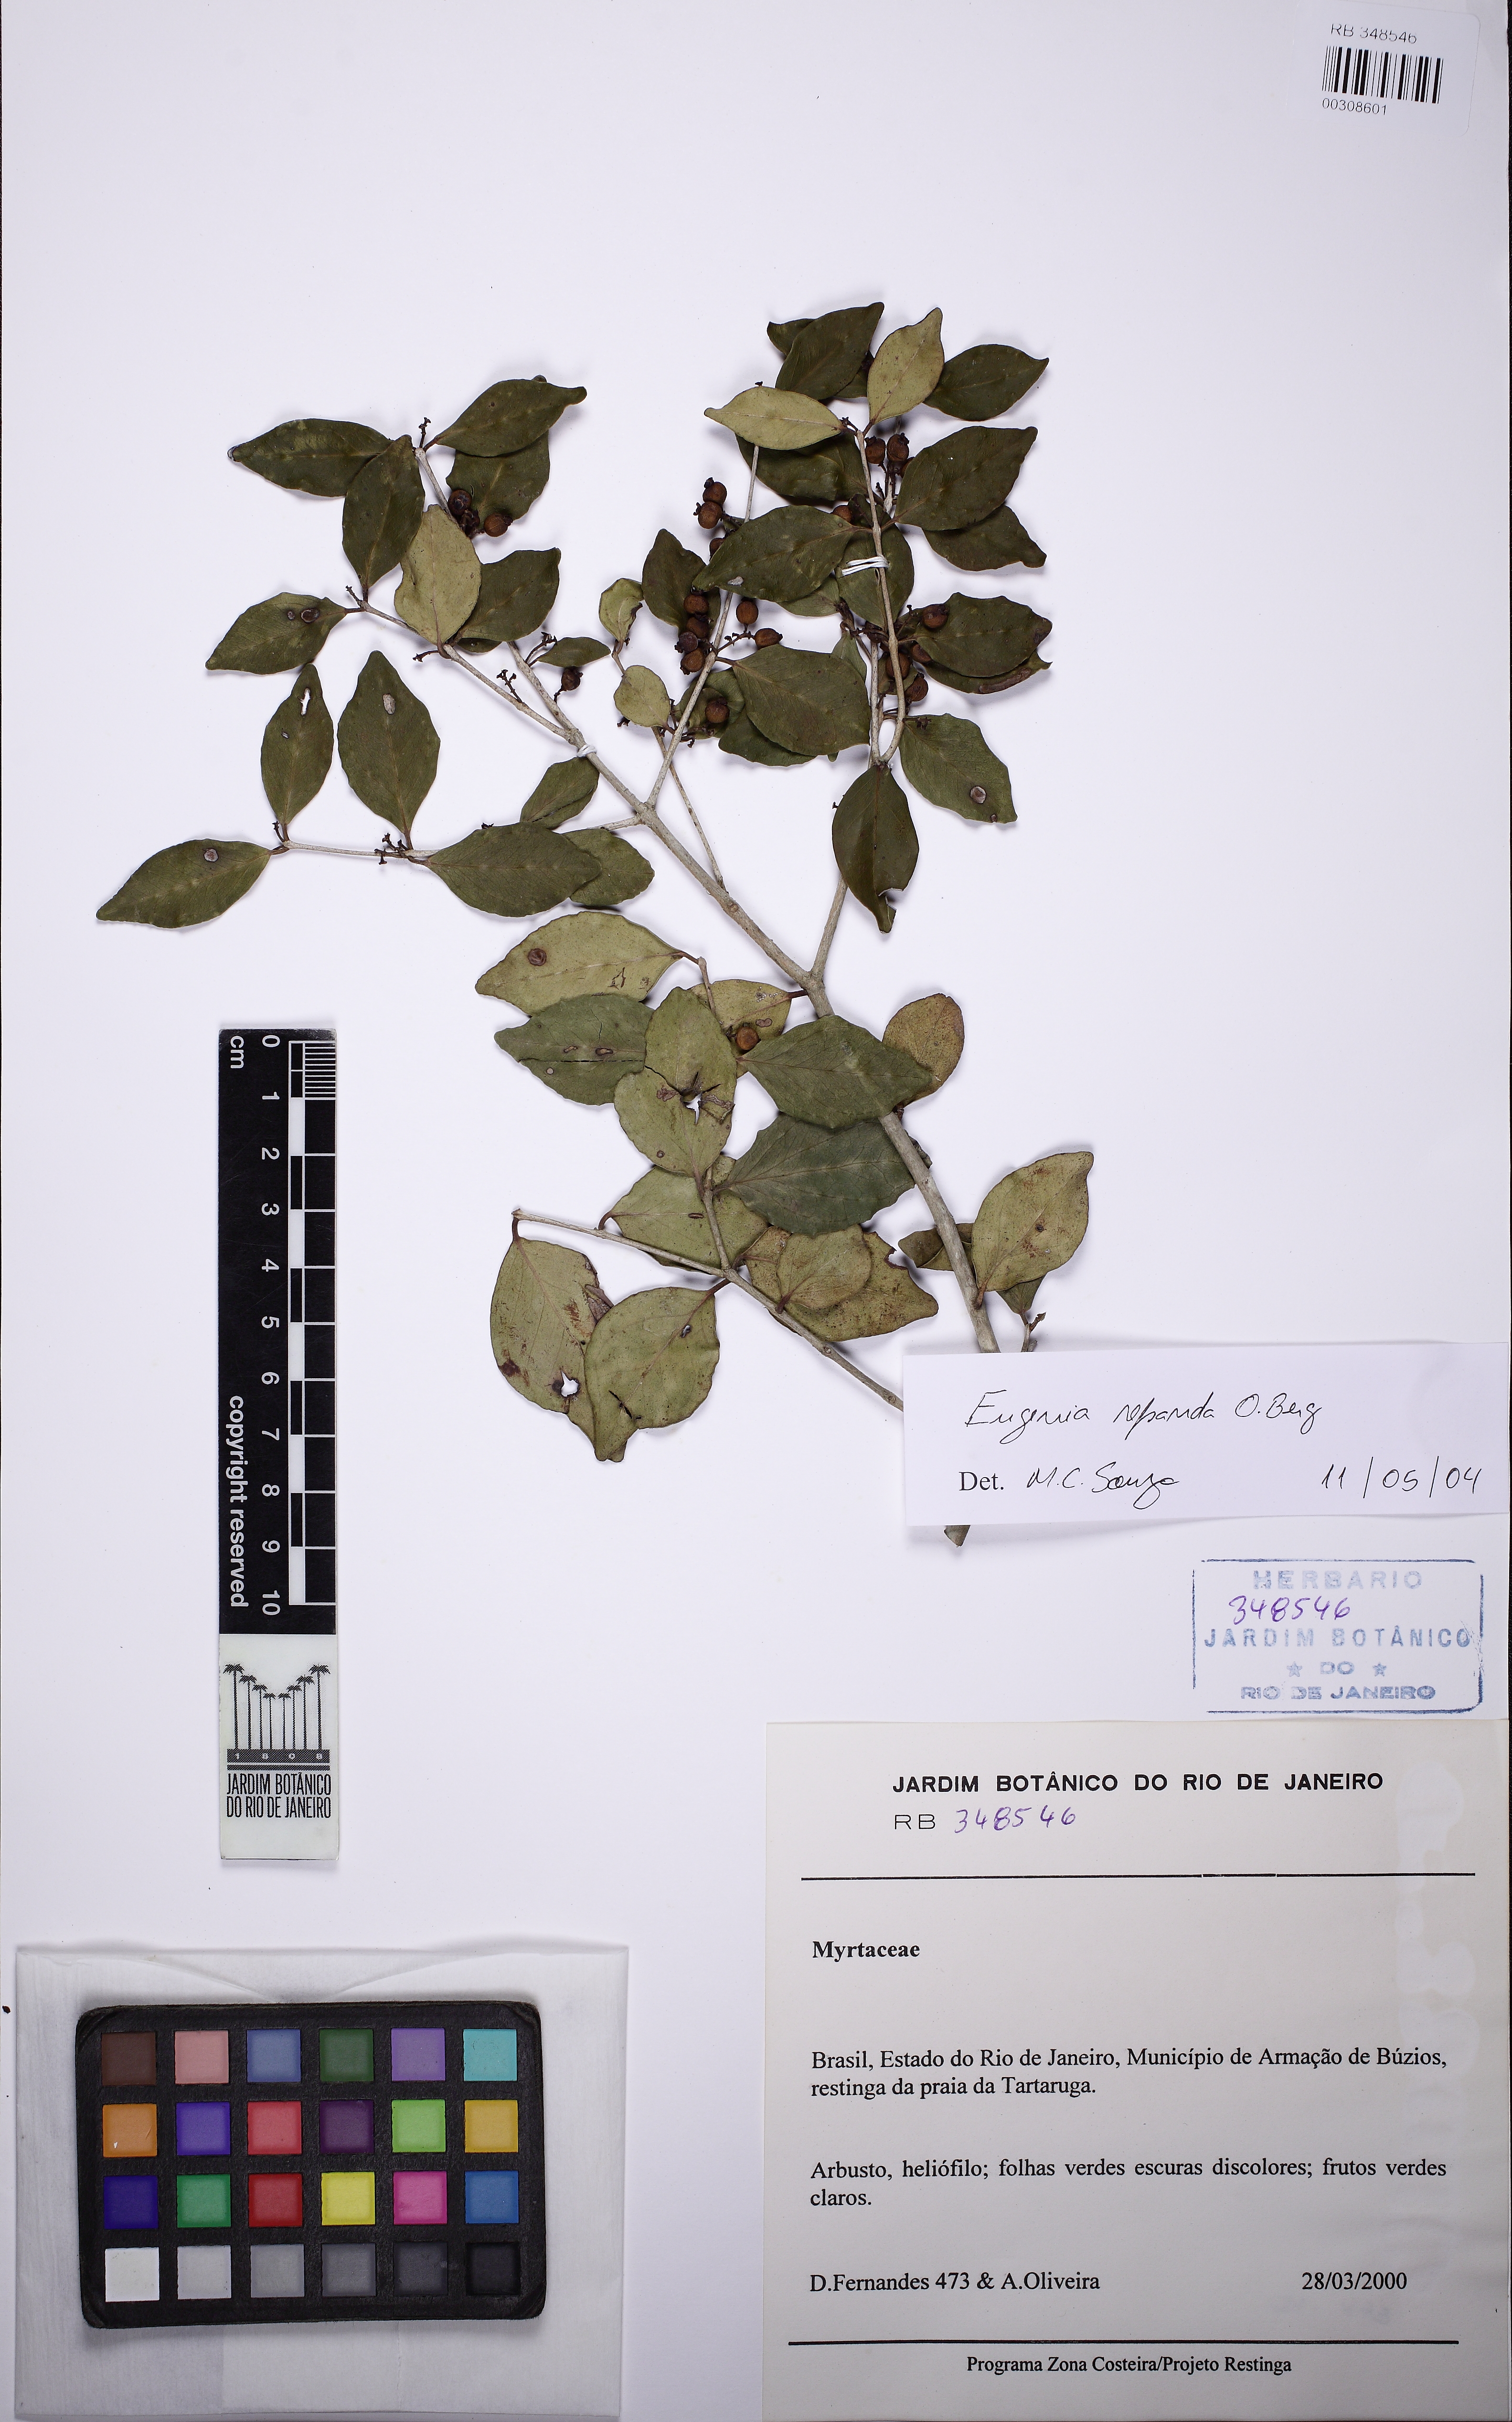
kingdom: Plantae
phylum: Tracheophyta
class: Magnoliopsida
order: Myrtales
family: Myrtaceae
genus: Eugenia
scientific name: Eugenia repanda
